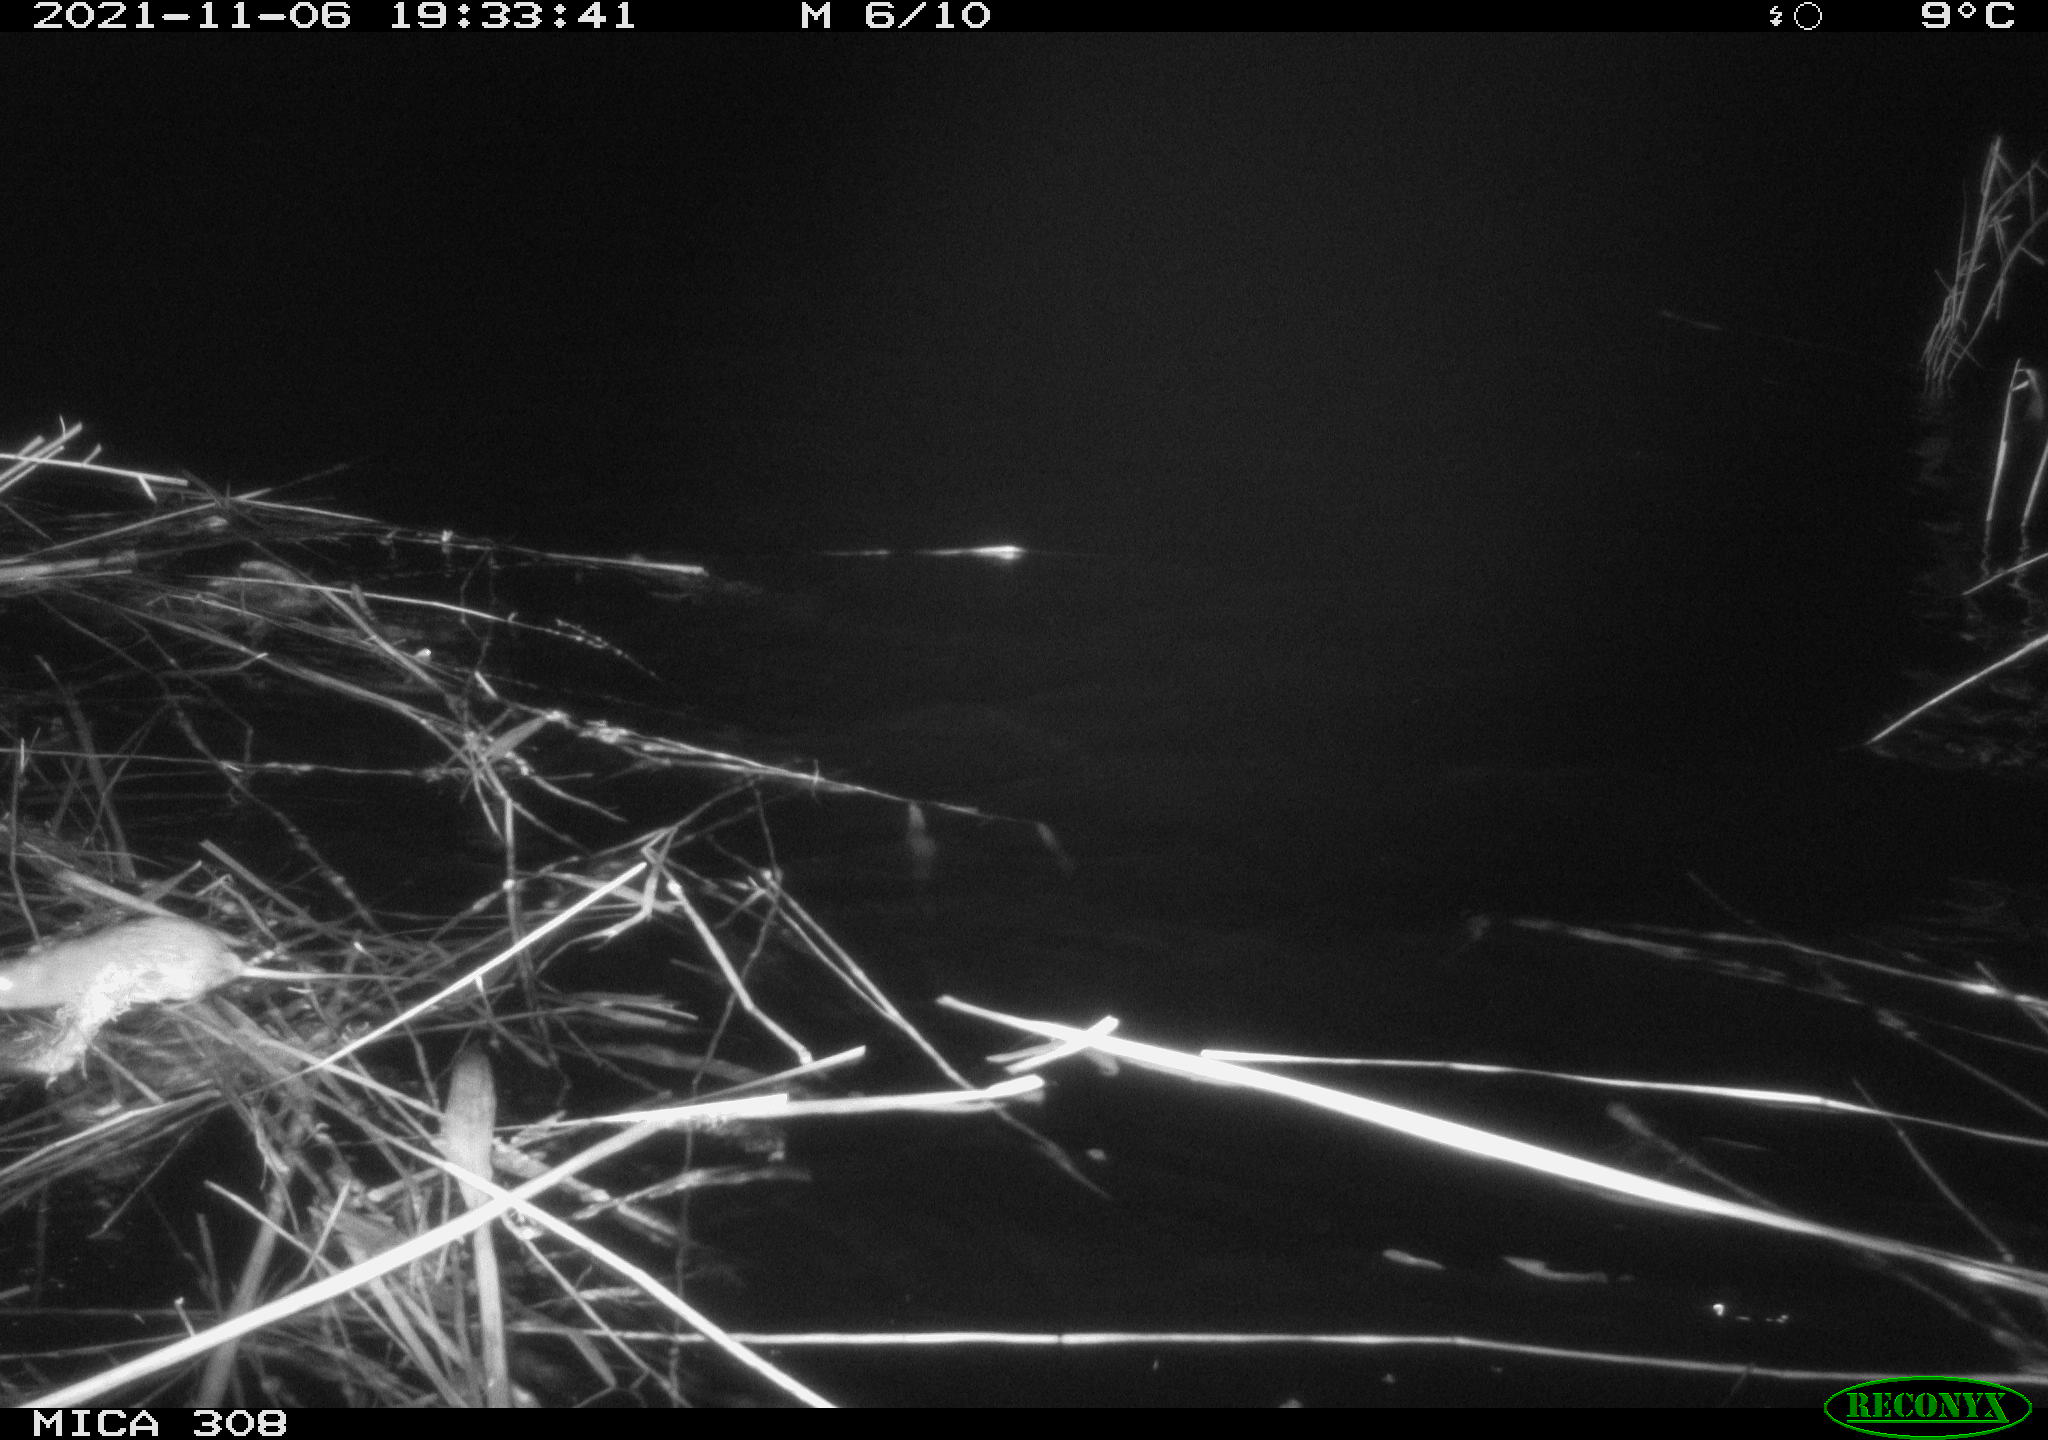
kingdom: Animalia
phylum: Chordata
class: Mammalia
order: Rodentia
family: Muridae
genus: Rattus
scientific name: Rattus norvegicus
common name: Brown rat
